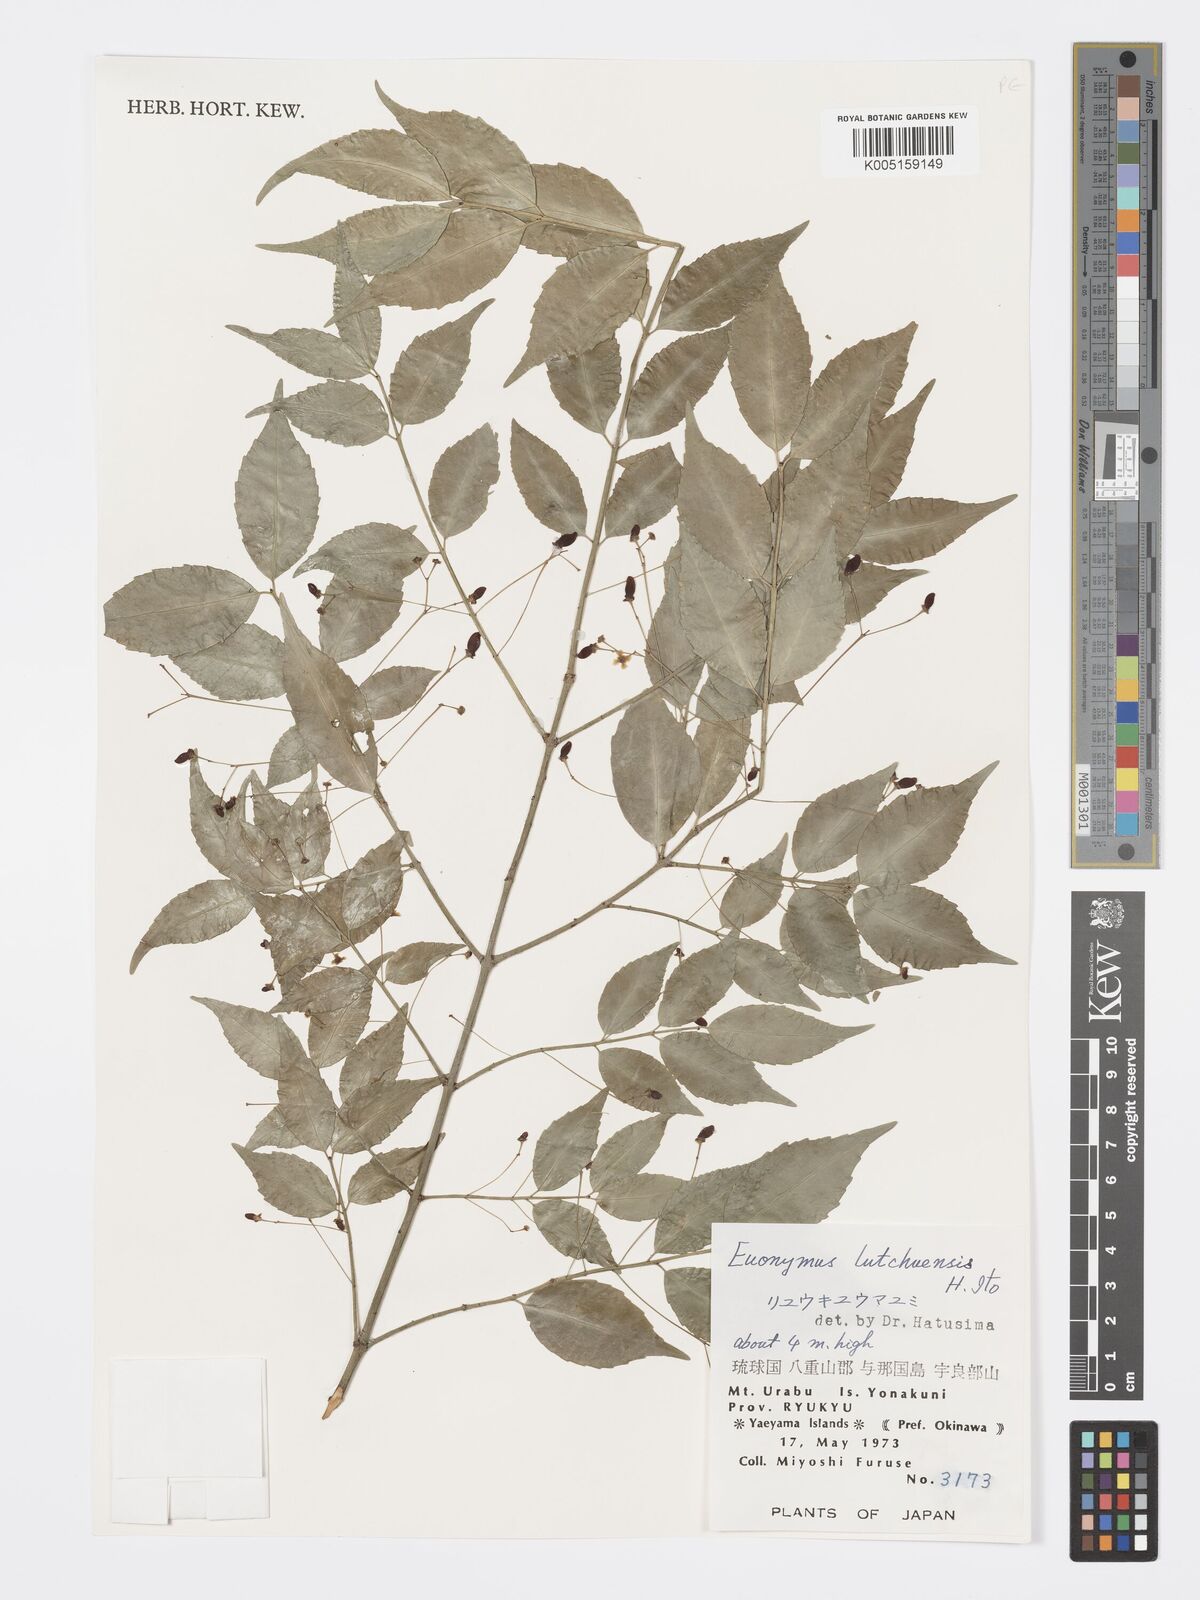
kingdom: Plantae
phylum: Tracheophyta
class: Magnoliopsida
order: Celastrales
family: Celastraceae
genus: Euonymus
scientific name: Euonymus lutchuensis
